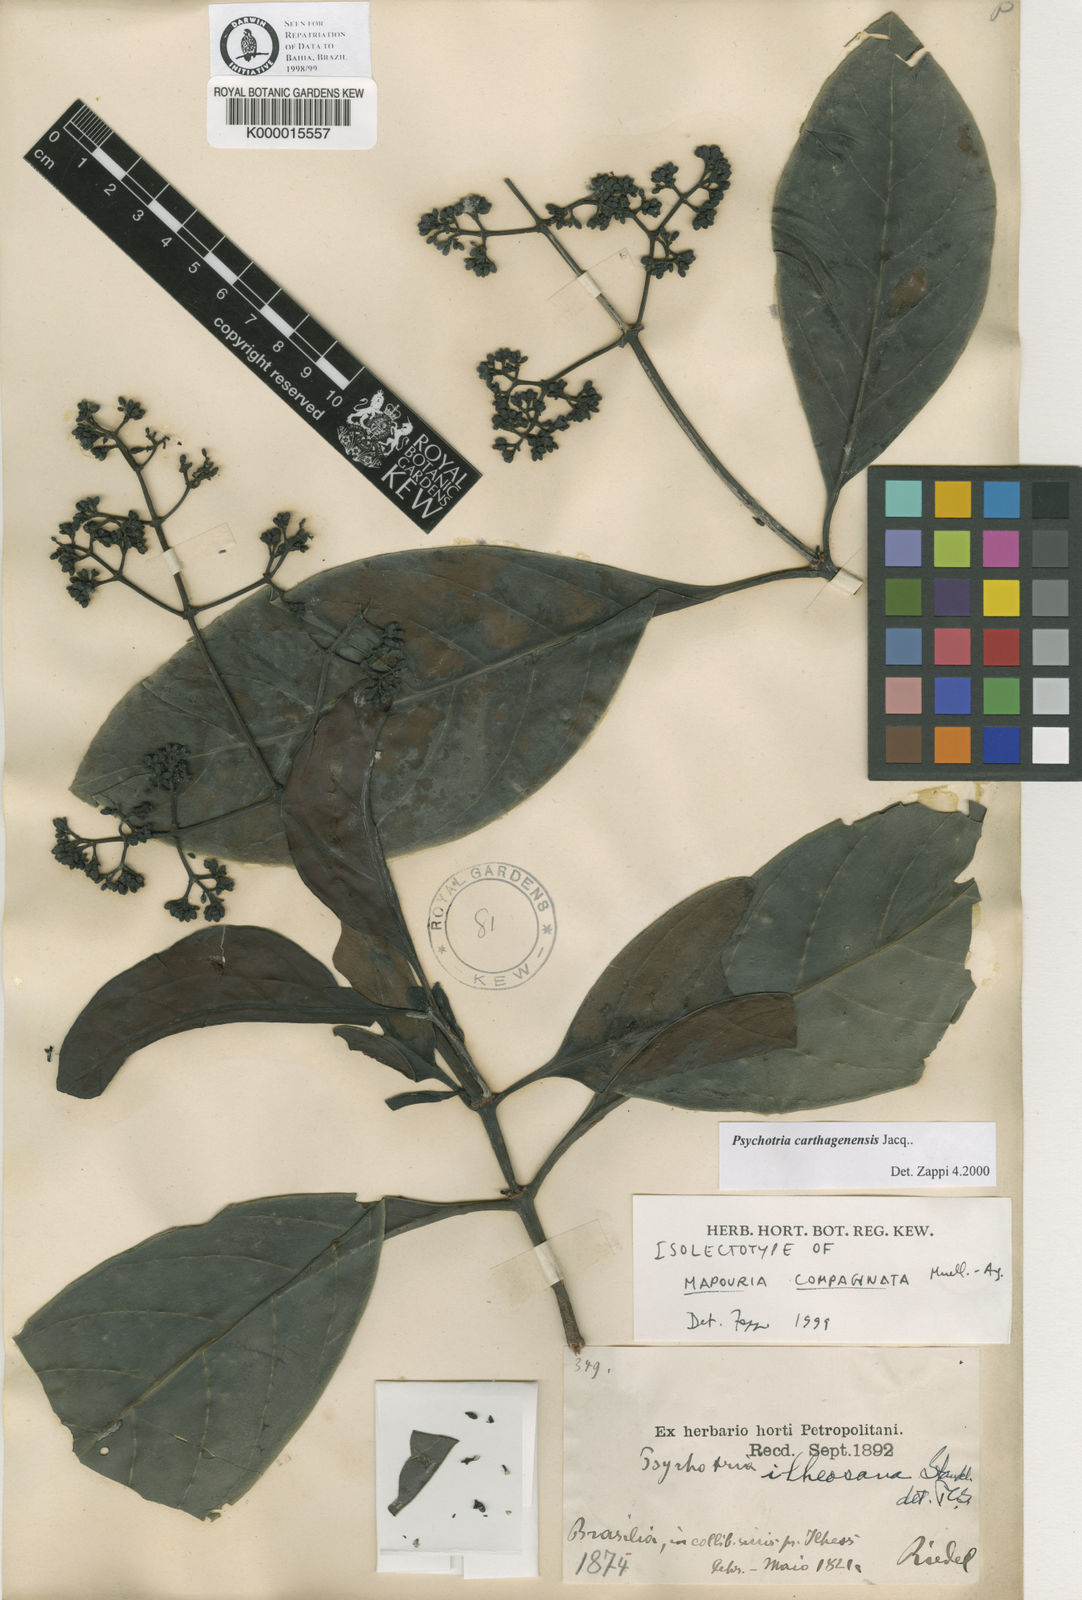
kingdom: Plantae
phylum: Tracheophyta
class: Magnoliopsida
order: Gentianales
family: Rubiaceae
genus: Psychotria
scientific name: Psychotria carthagenensis
